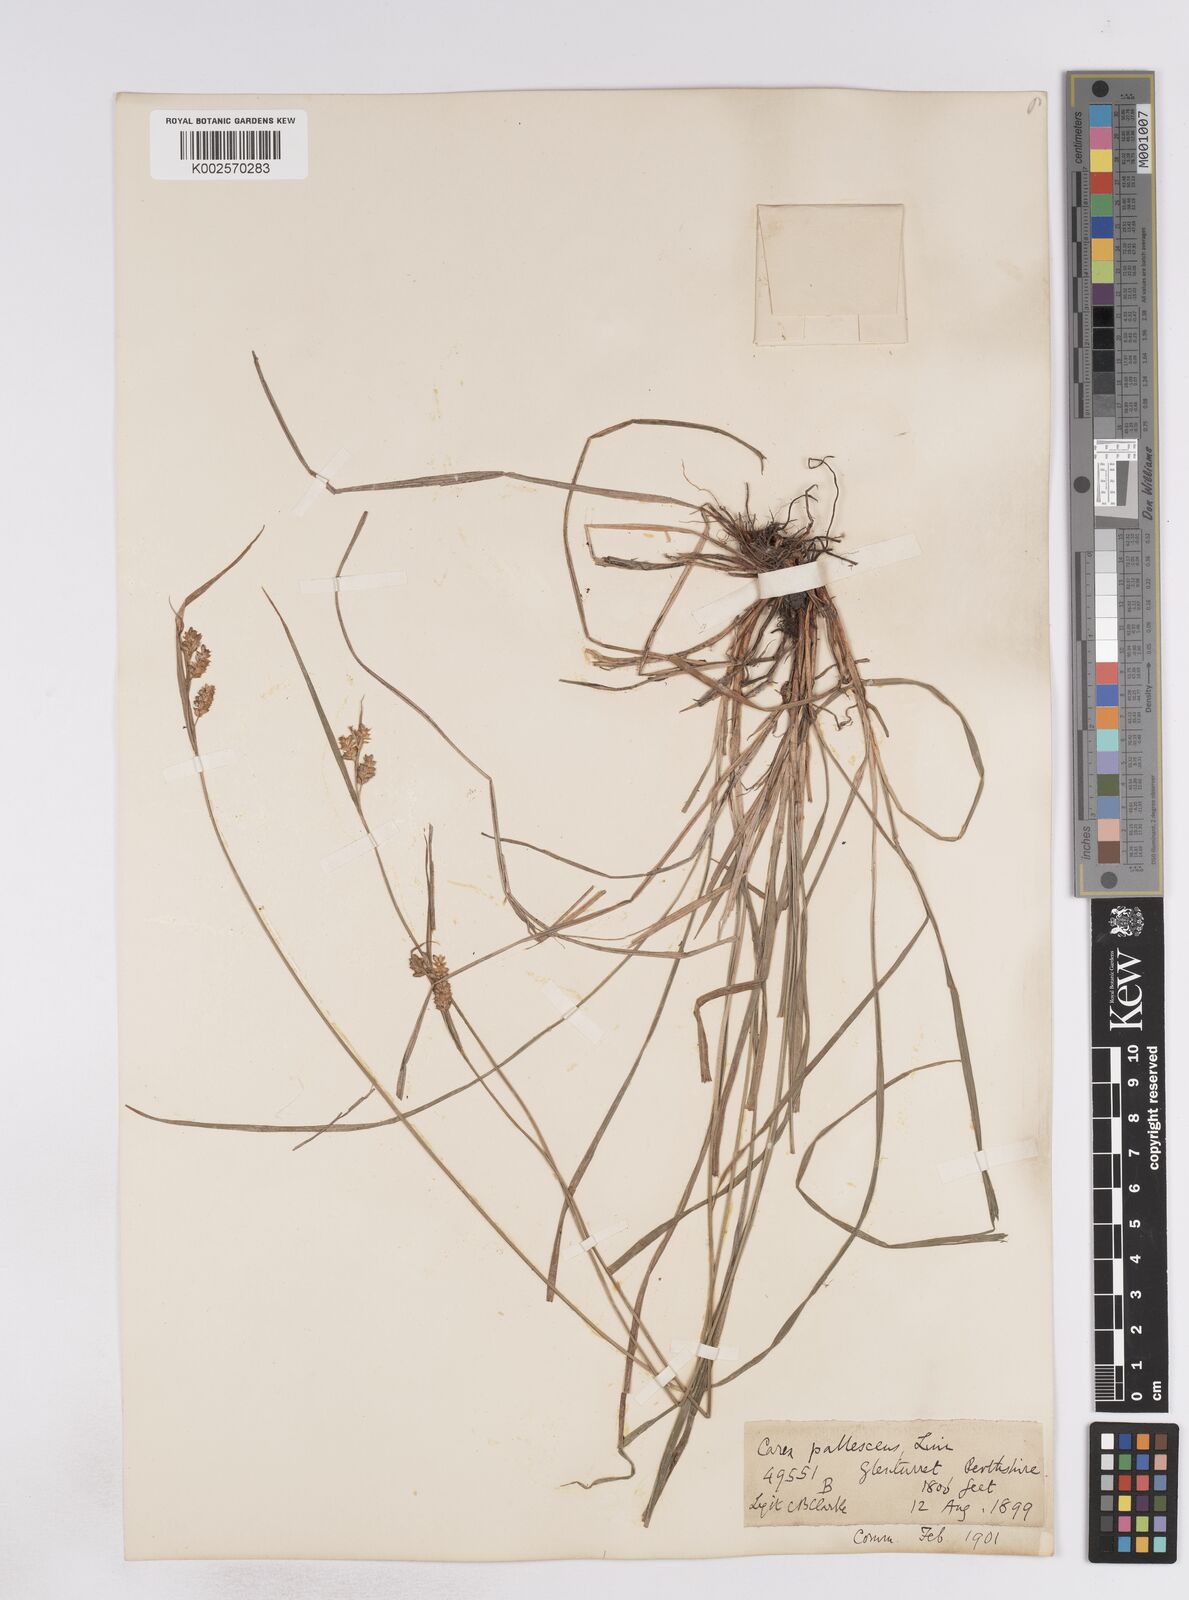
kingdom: Plantae
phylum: Tracheophyta
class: Liliopsida
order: Poales
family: Cyperaceae
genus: Carex
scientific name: Carex pallescens
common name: Pale sedge
